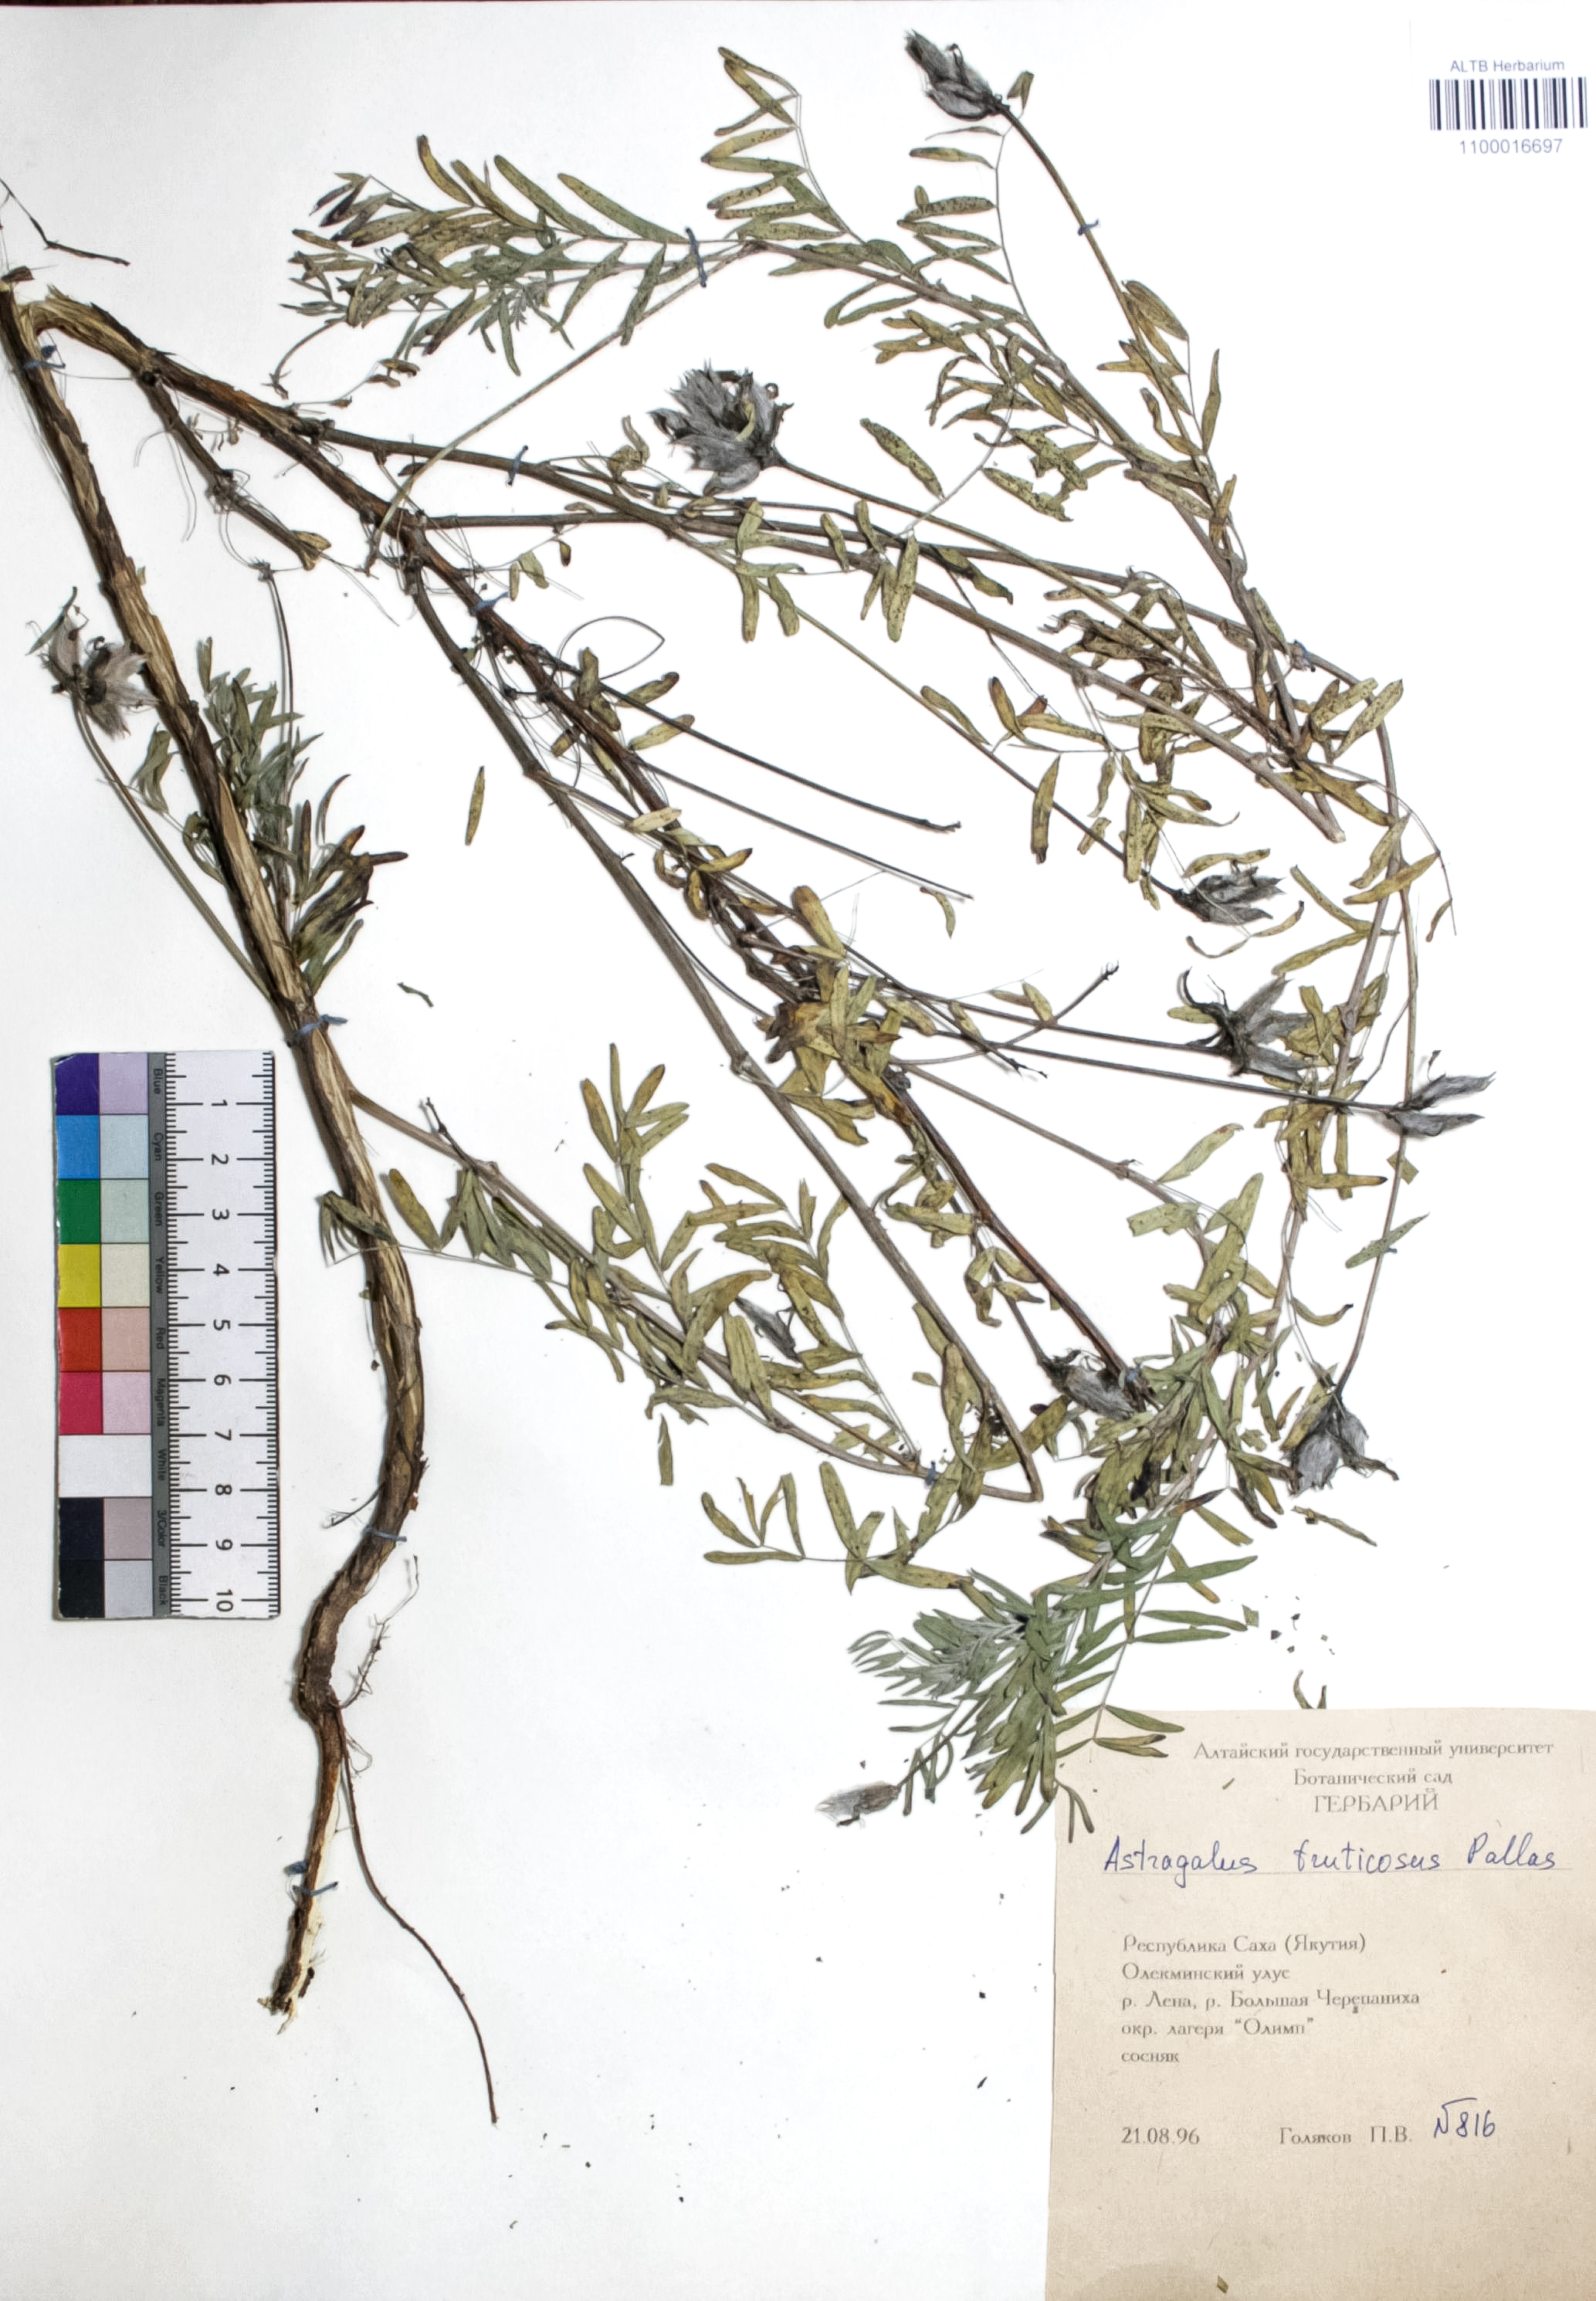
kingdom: Plantae
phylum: Tracheophyta
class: Magnoliopsida
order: Fabales
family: Fabaceae
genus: Astragalus
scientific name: Astragalus syriacus
